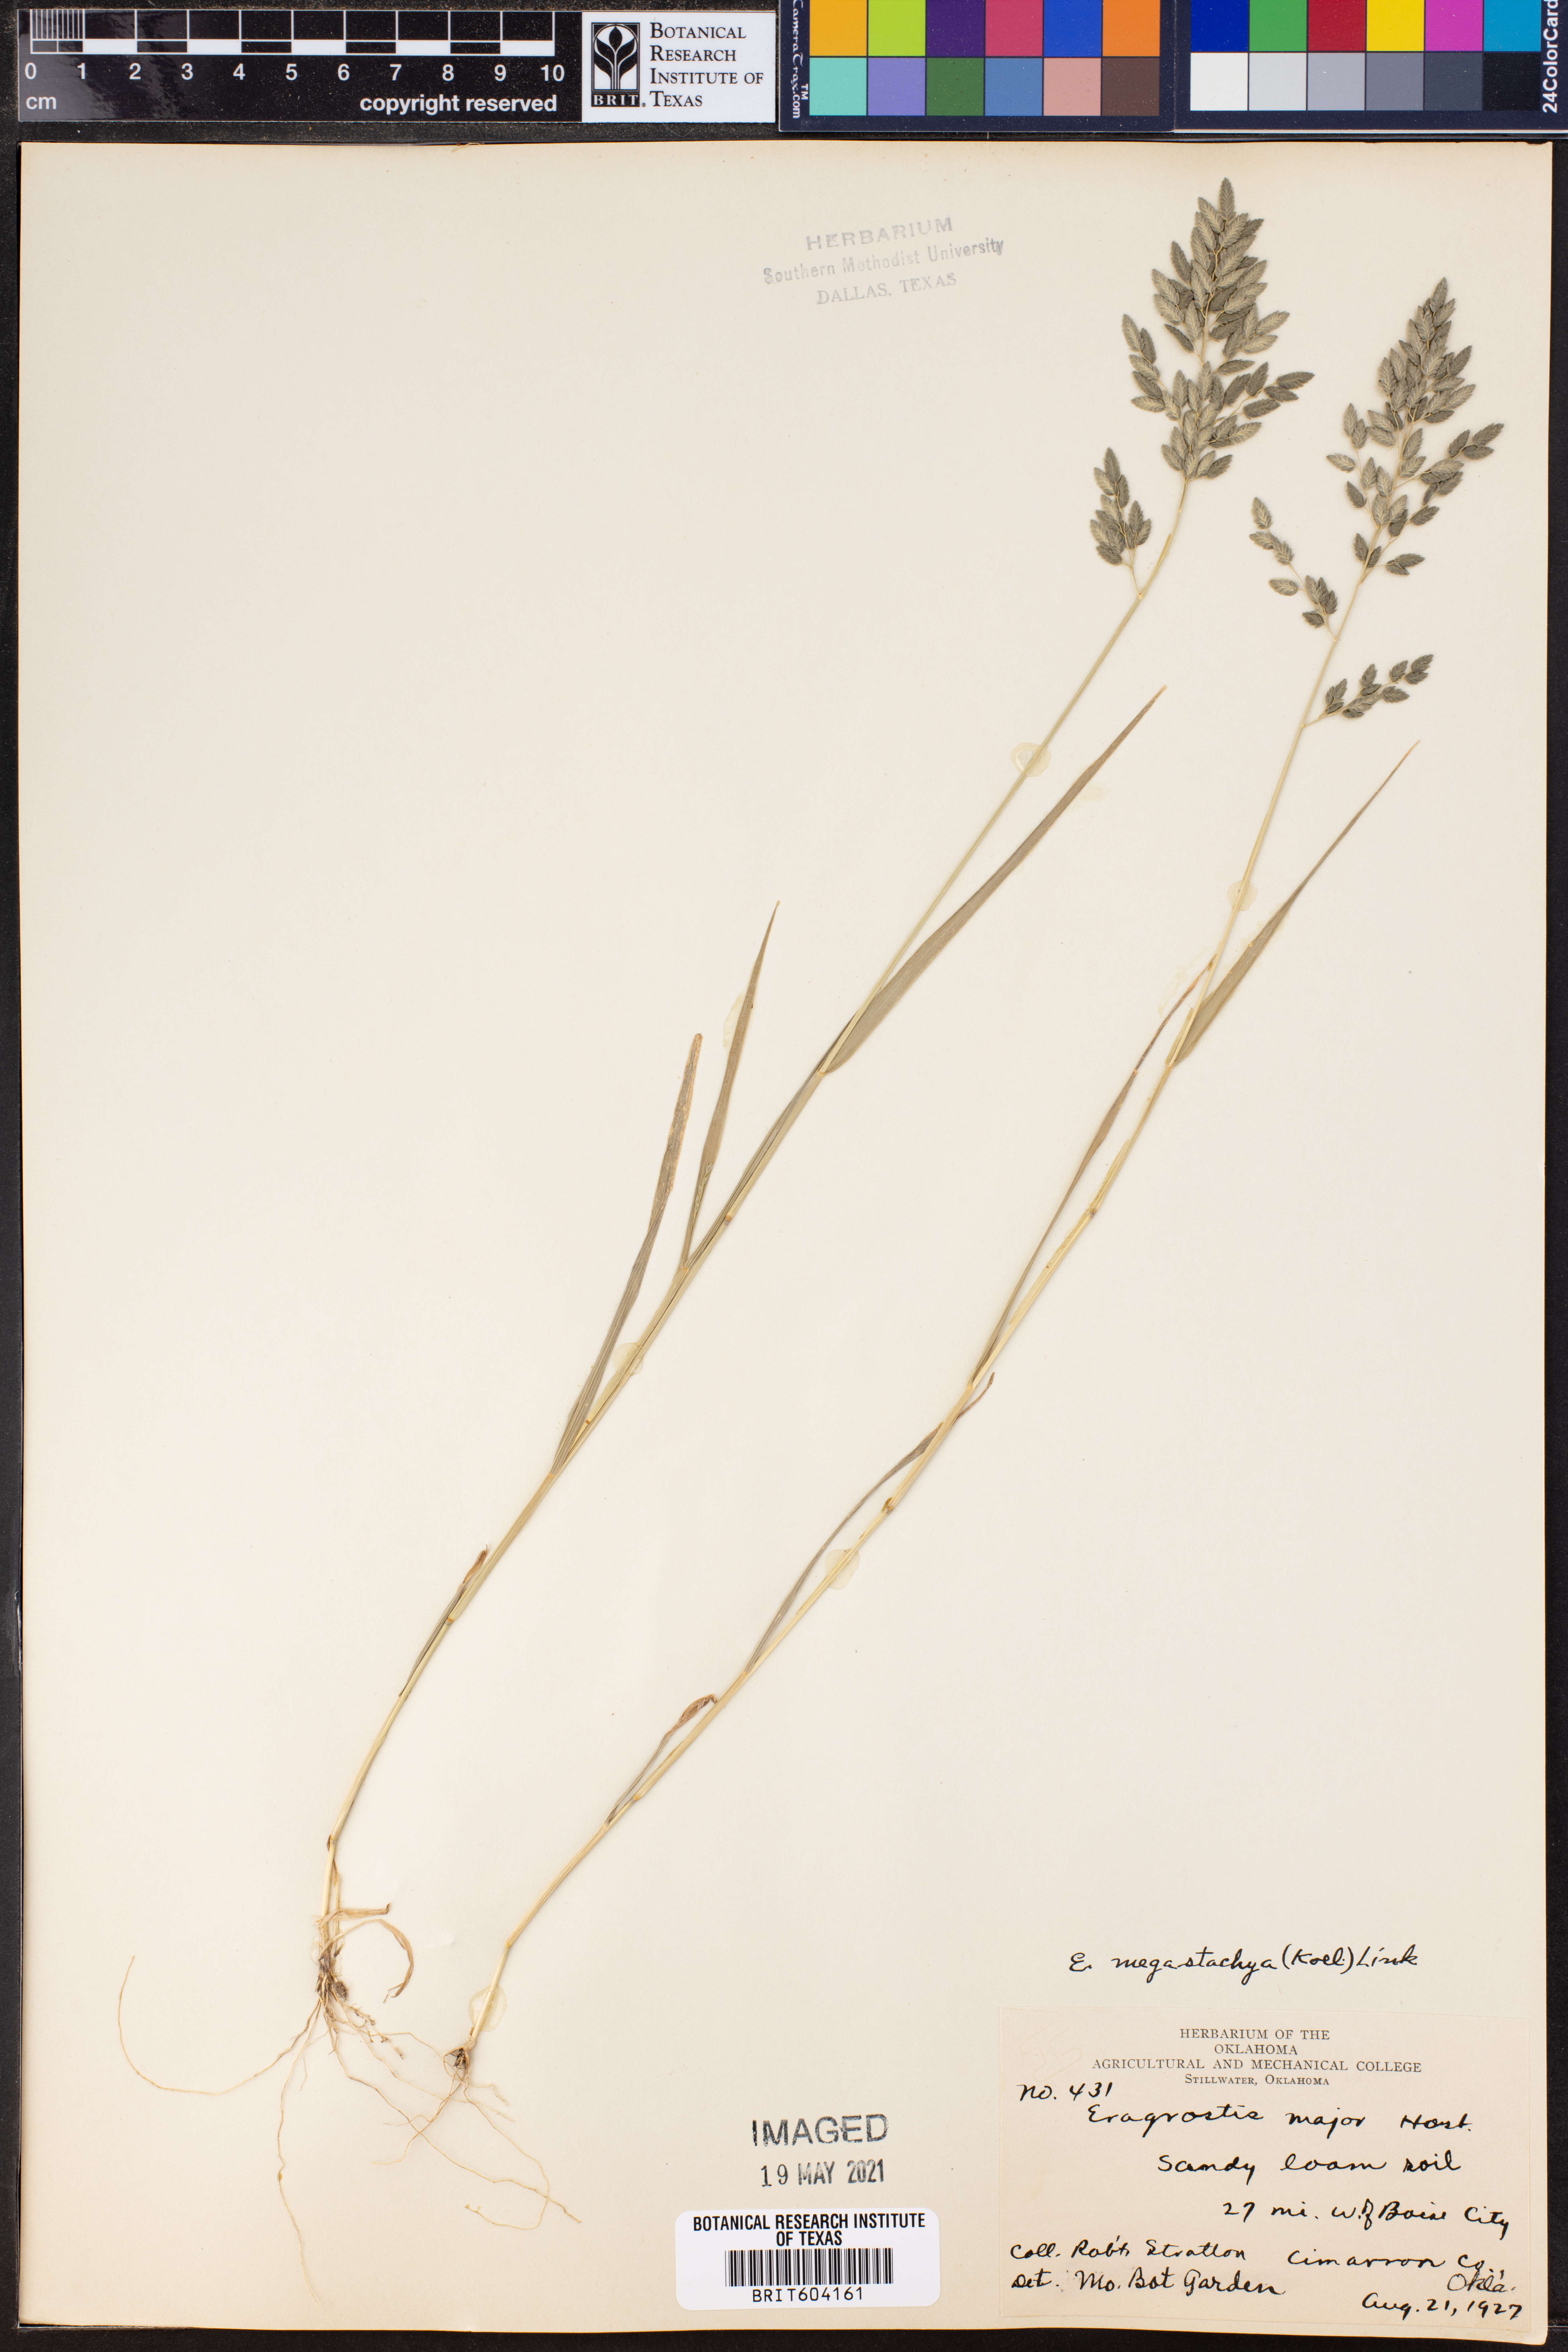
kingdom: Plantae
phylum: Tracheophyta
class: Liliopsida
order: Poales
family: Poaceae
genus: Eragrostis
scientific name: Eragrostis cilianensis
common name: Stinkgrass
